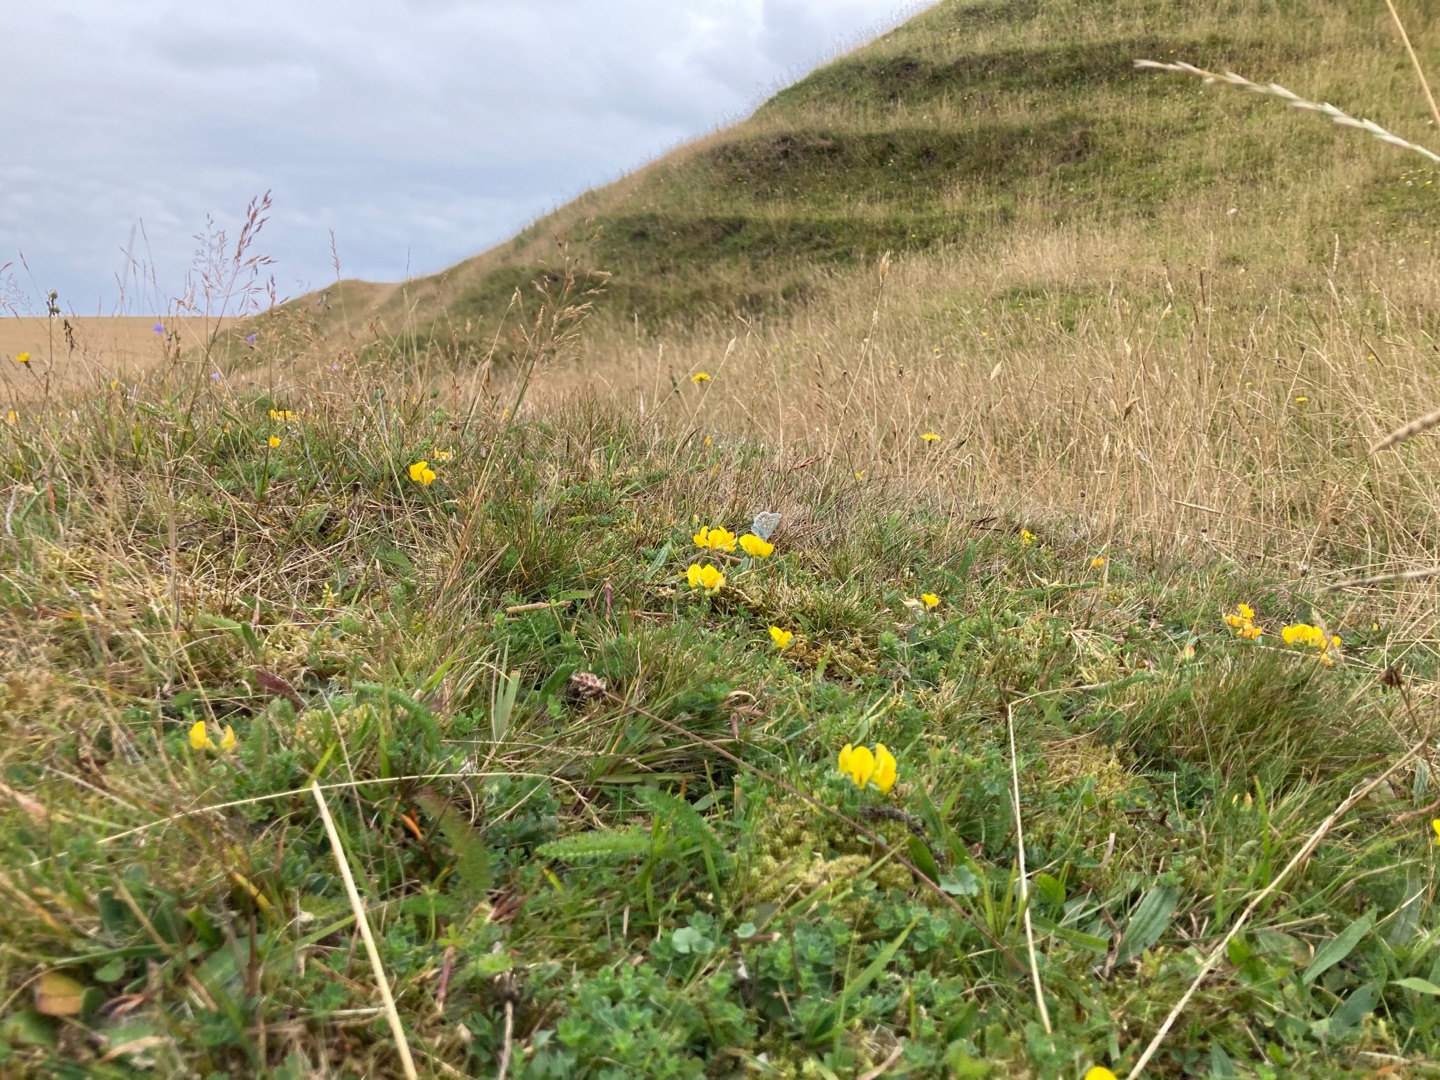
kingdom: Animalia
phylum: Arthropoda
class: Insecta
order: Lepidoptera
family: Lycaenidae
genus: Polyommatus
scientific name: Polyommatus icarus
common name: Almindelig blåfugl
